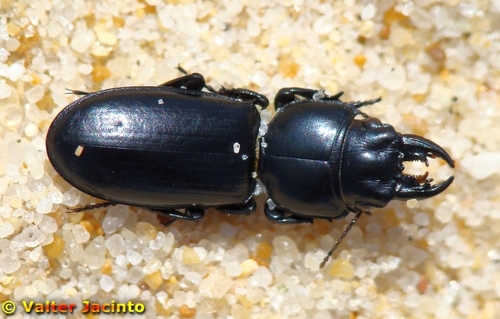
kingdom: Animalia
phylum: Arthropoda
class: Insecta
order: Coleoptera
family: Carabidae
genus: Scarites
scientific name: Scarites
